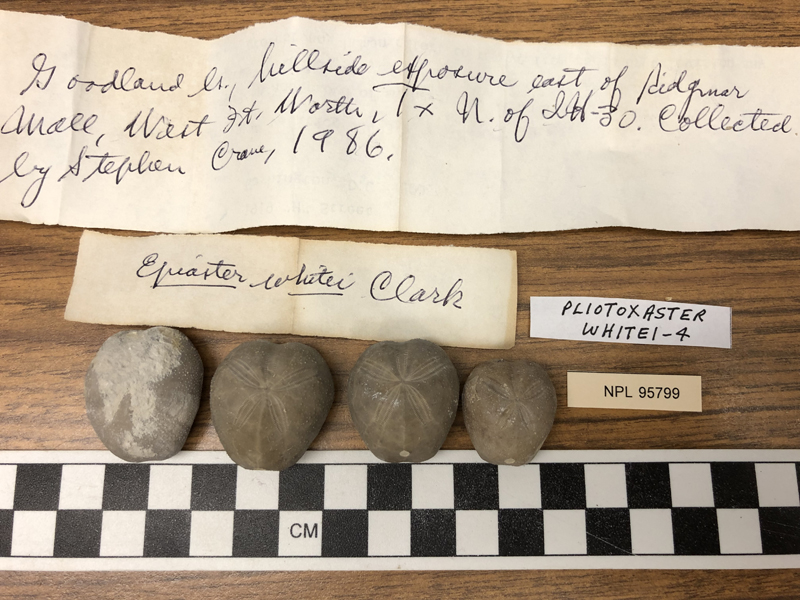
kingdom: Animalia
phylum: Echinodermata
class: Echinoidea
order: Spatangoida
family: Toxasteridae
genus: Pliotoxaster
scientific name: Pliotoxaster
